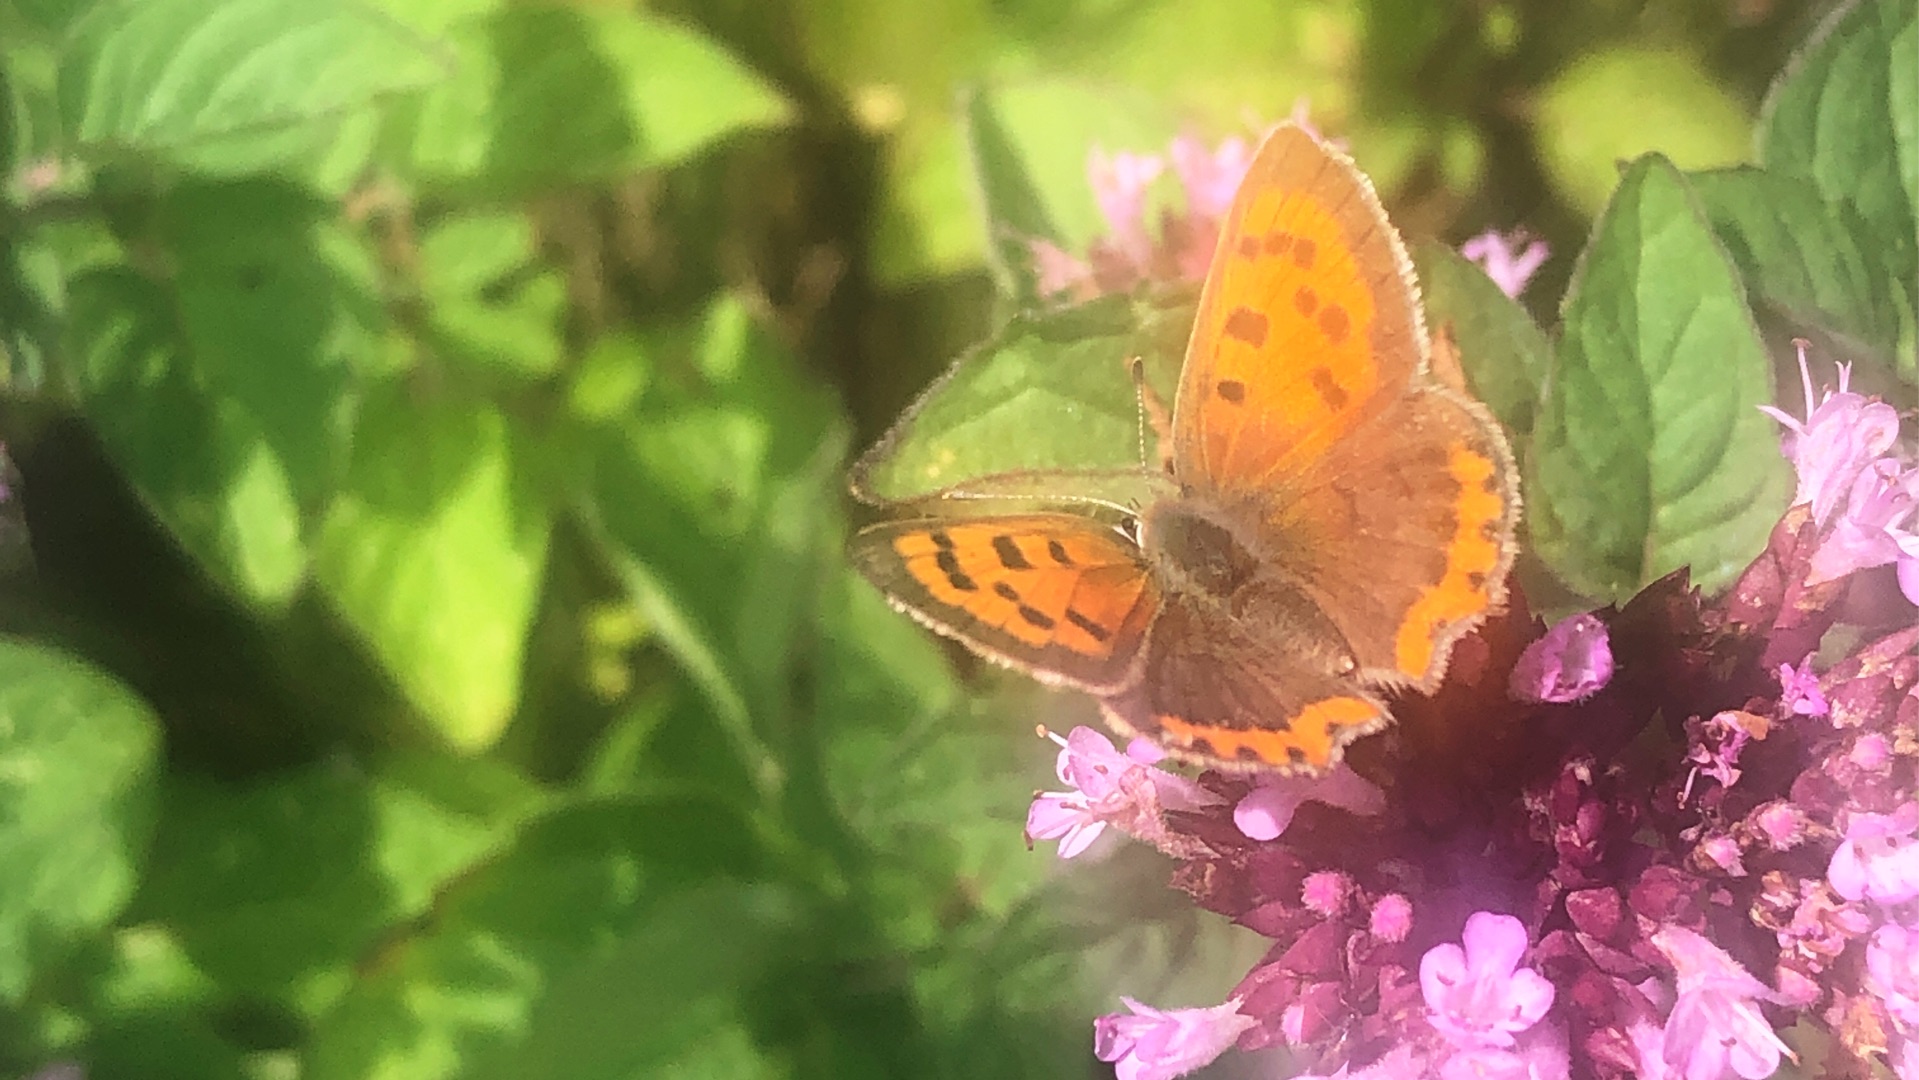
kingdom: Animalia
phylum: Arthropoda
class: Insecta
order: Lepidoptera
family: Lycaenidae
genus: Lycaena
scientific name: Lycaena phlaeas
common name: Lille ildfugl
